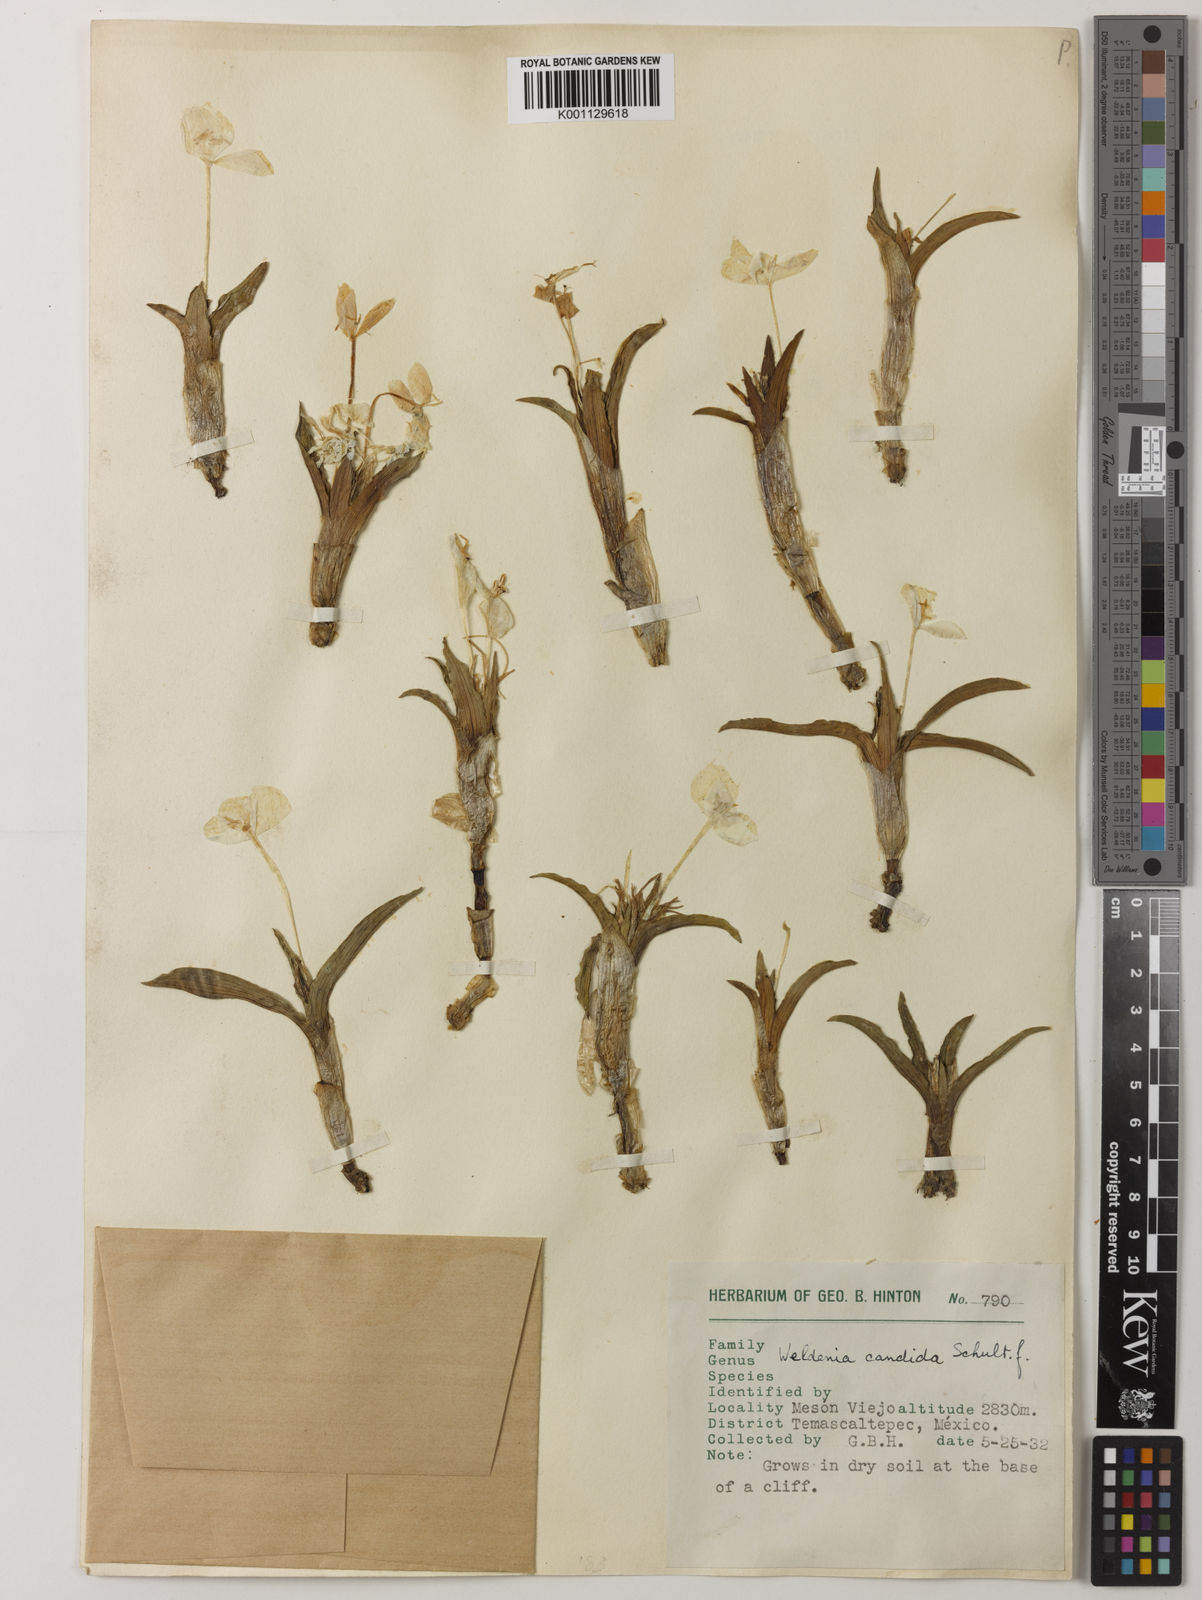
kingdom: Plantae
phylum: Tracheophyta
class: Liliopsida
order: Commelinales
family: Commelinaceae
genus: Weldenia
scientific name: Weldenia candida
